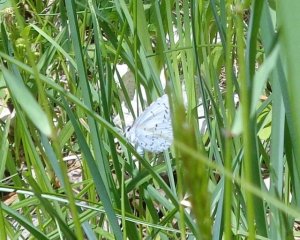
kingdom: Animalia
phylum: Arthropoda
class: Insecta
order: Lepidoptera
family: Lycaenidae
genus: Celastrina
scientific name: Celastrina lucia
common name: Northern Spring Azure
